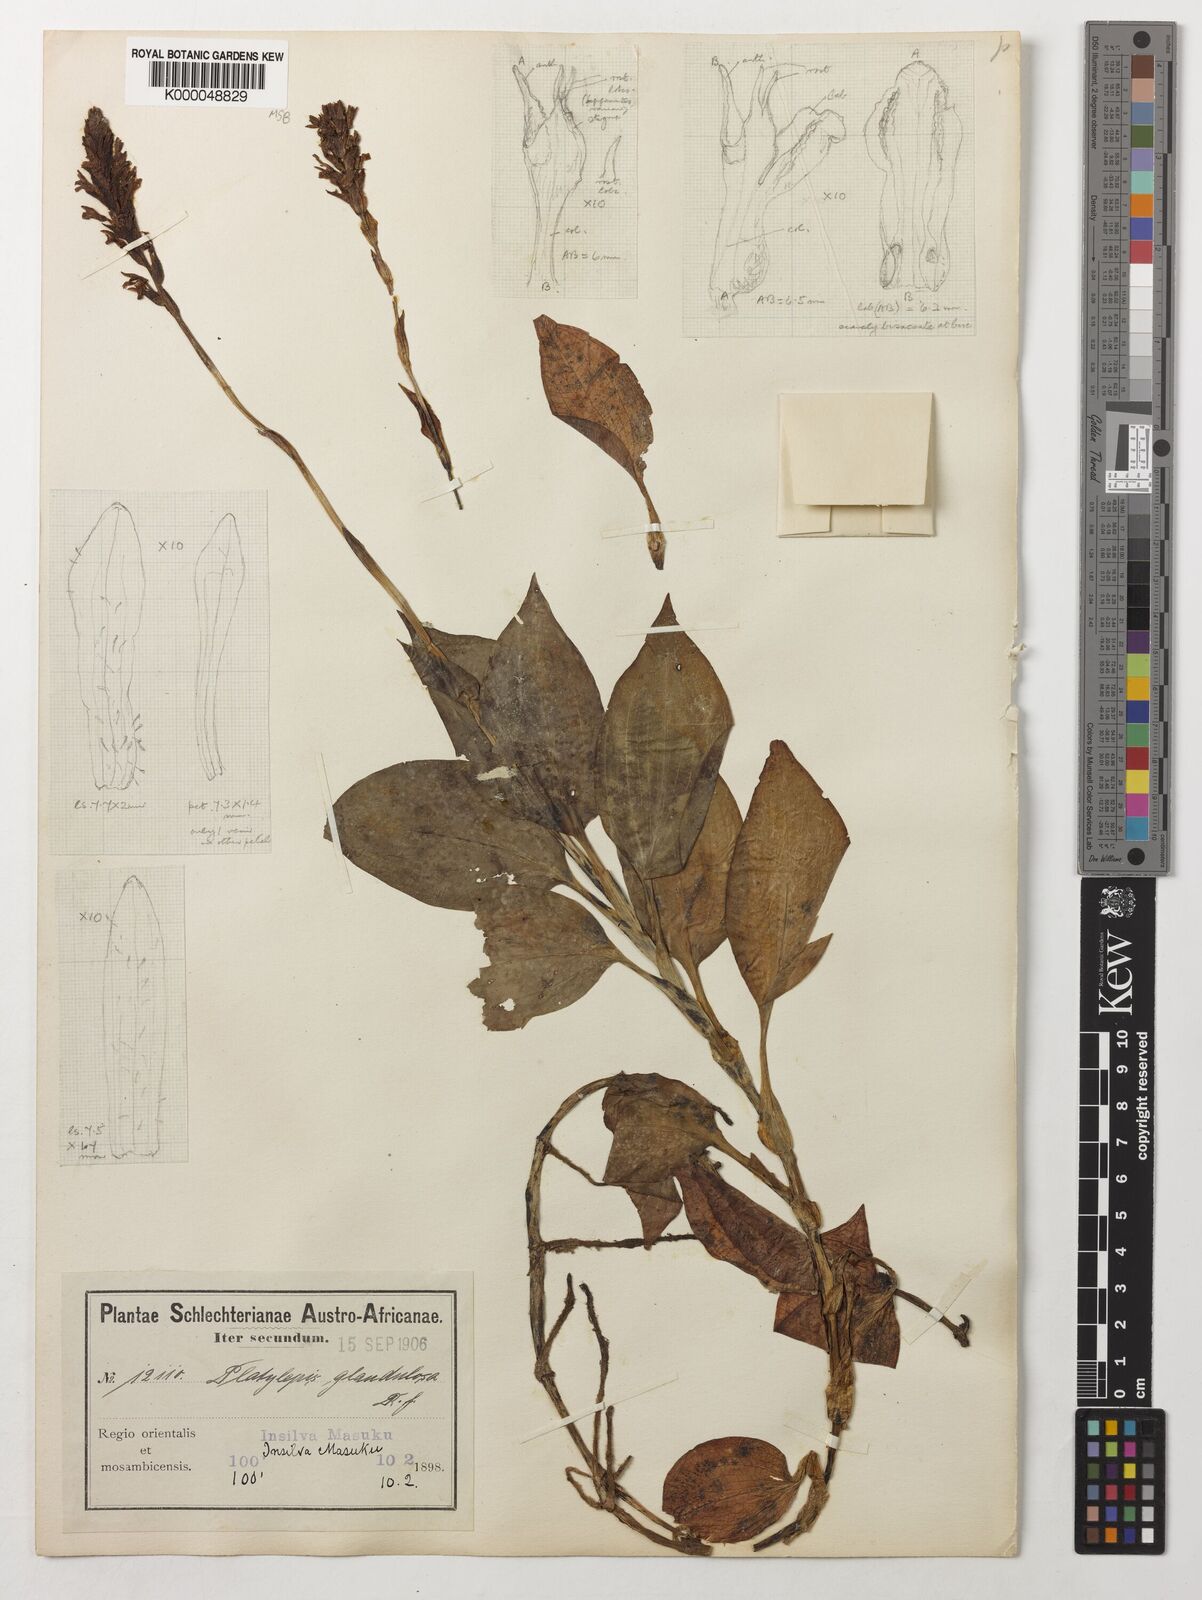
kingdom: Plantae
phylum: Tracheophyta
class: Liliopsida
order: Asparagales
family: Orchidaceae
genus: Platylepis
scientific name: Platylepis glandulosa
